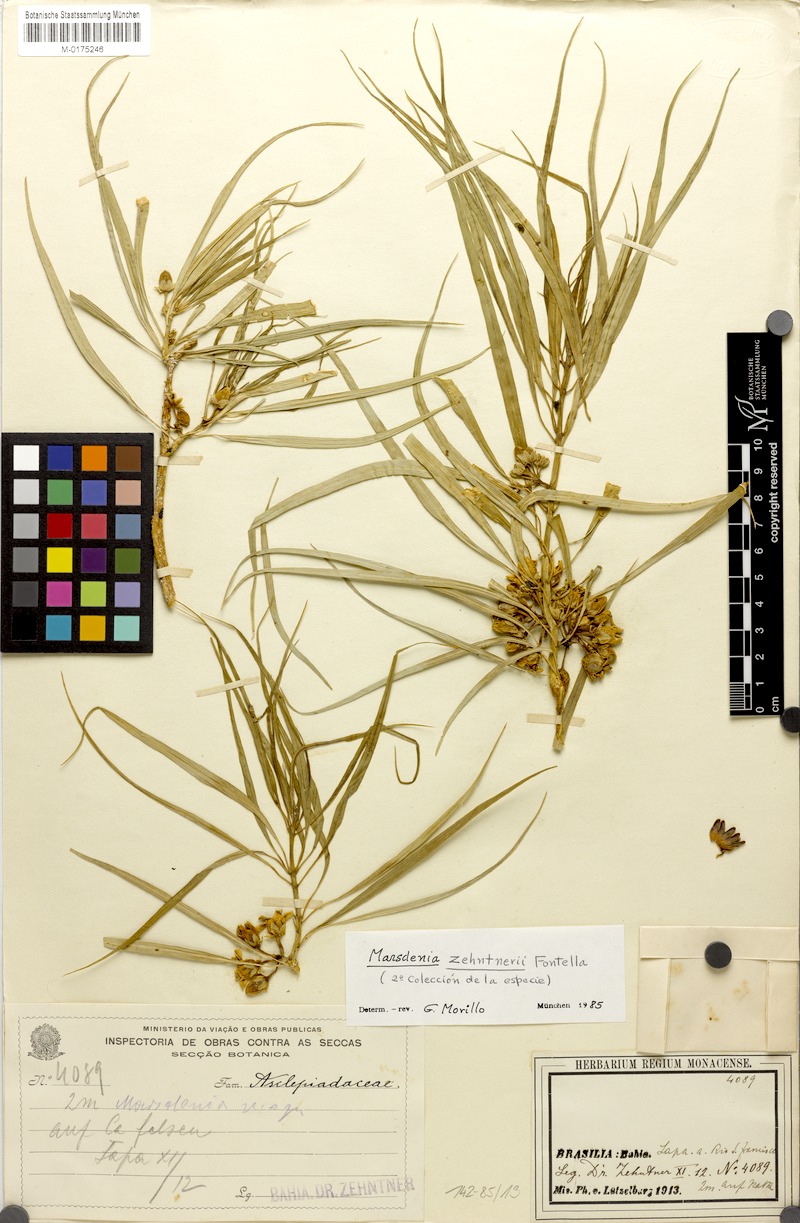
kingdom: Plantae
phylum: Tracheophyta
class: Magnoliopsida
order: Gentianales
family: Apocynaceae
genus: Ruehssia
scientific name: Ruehssia zehntneri
